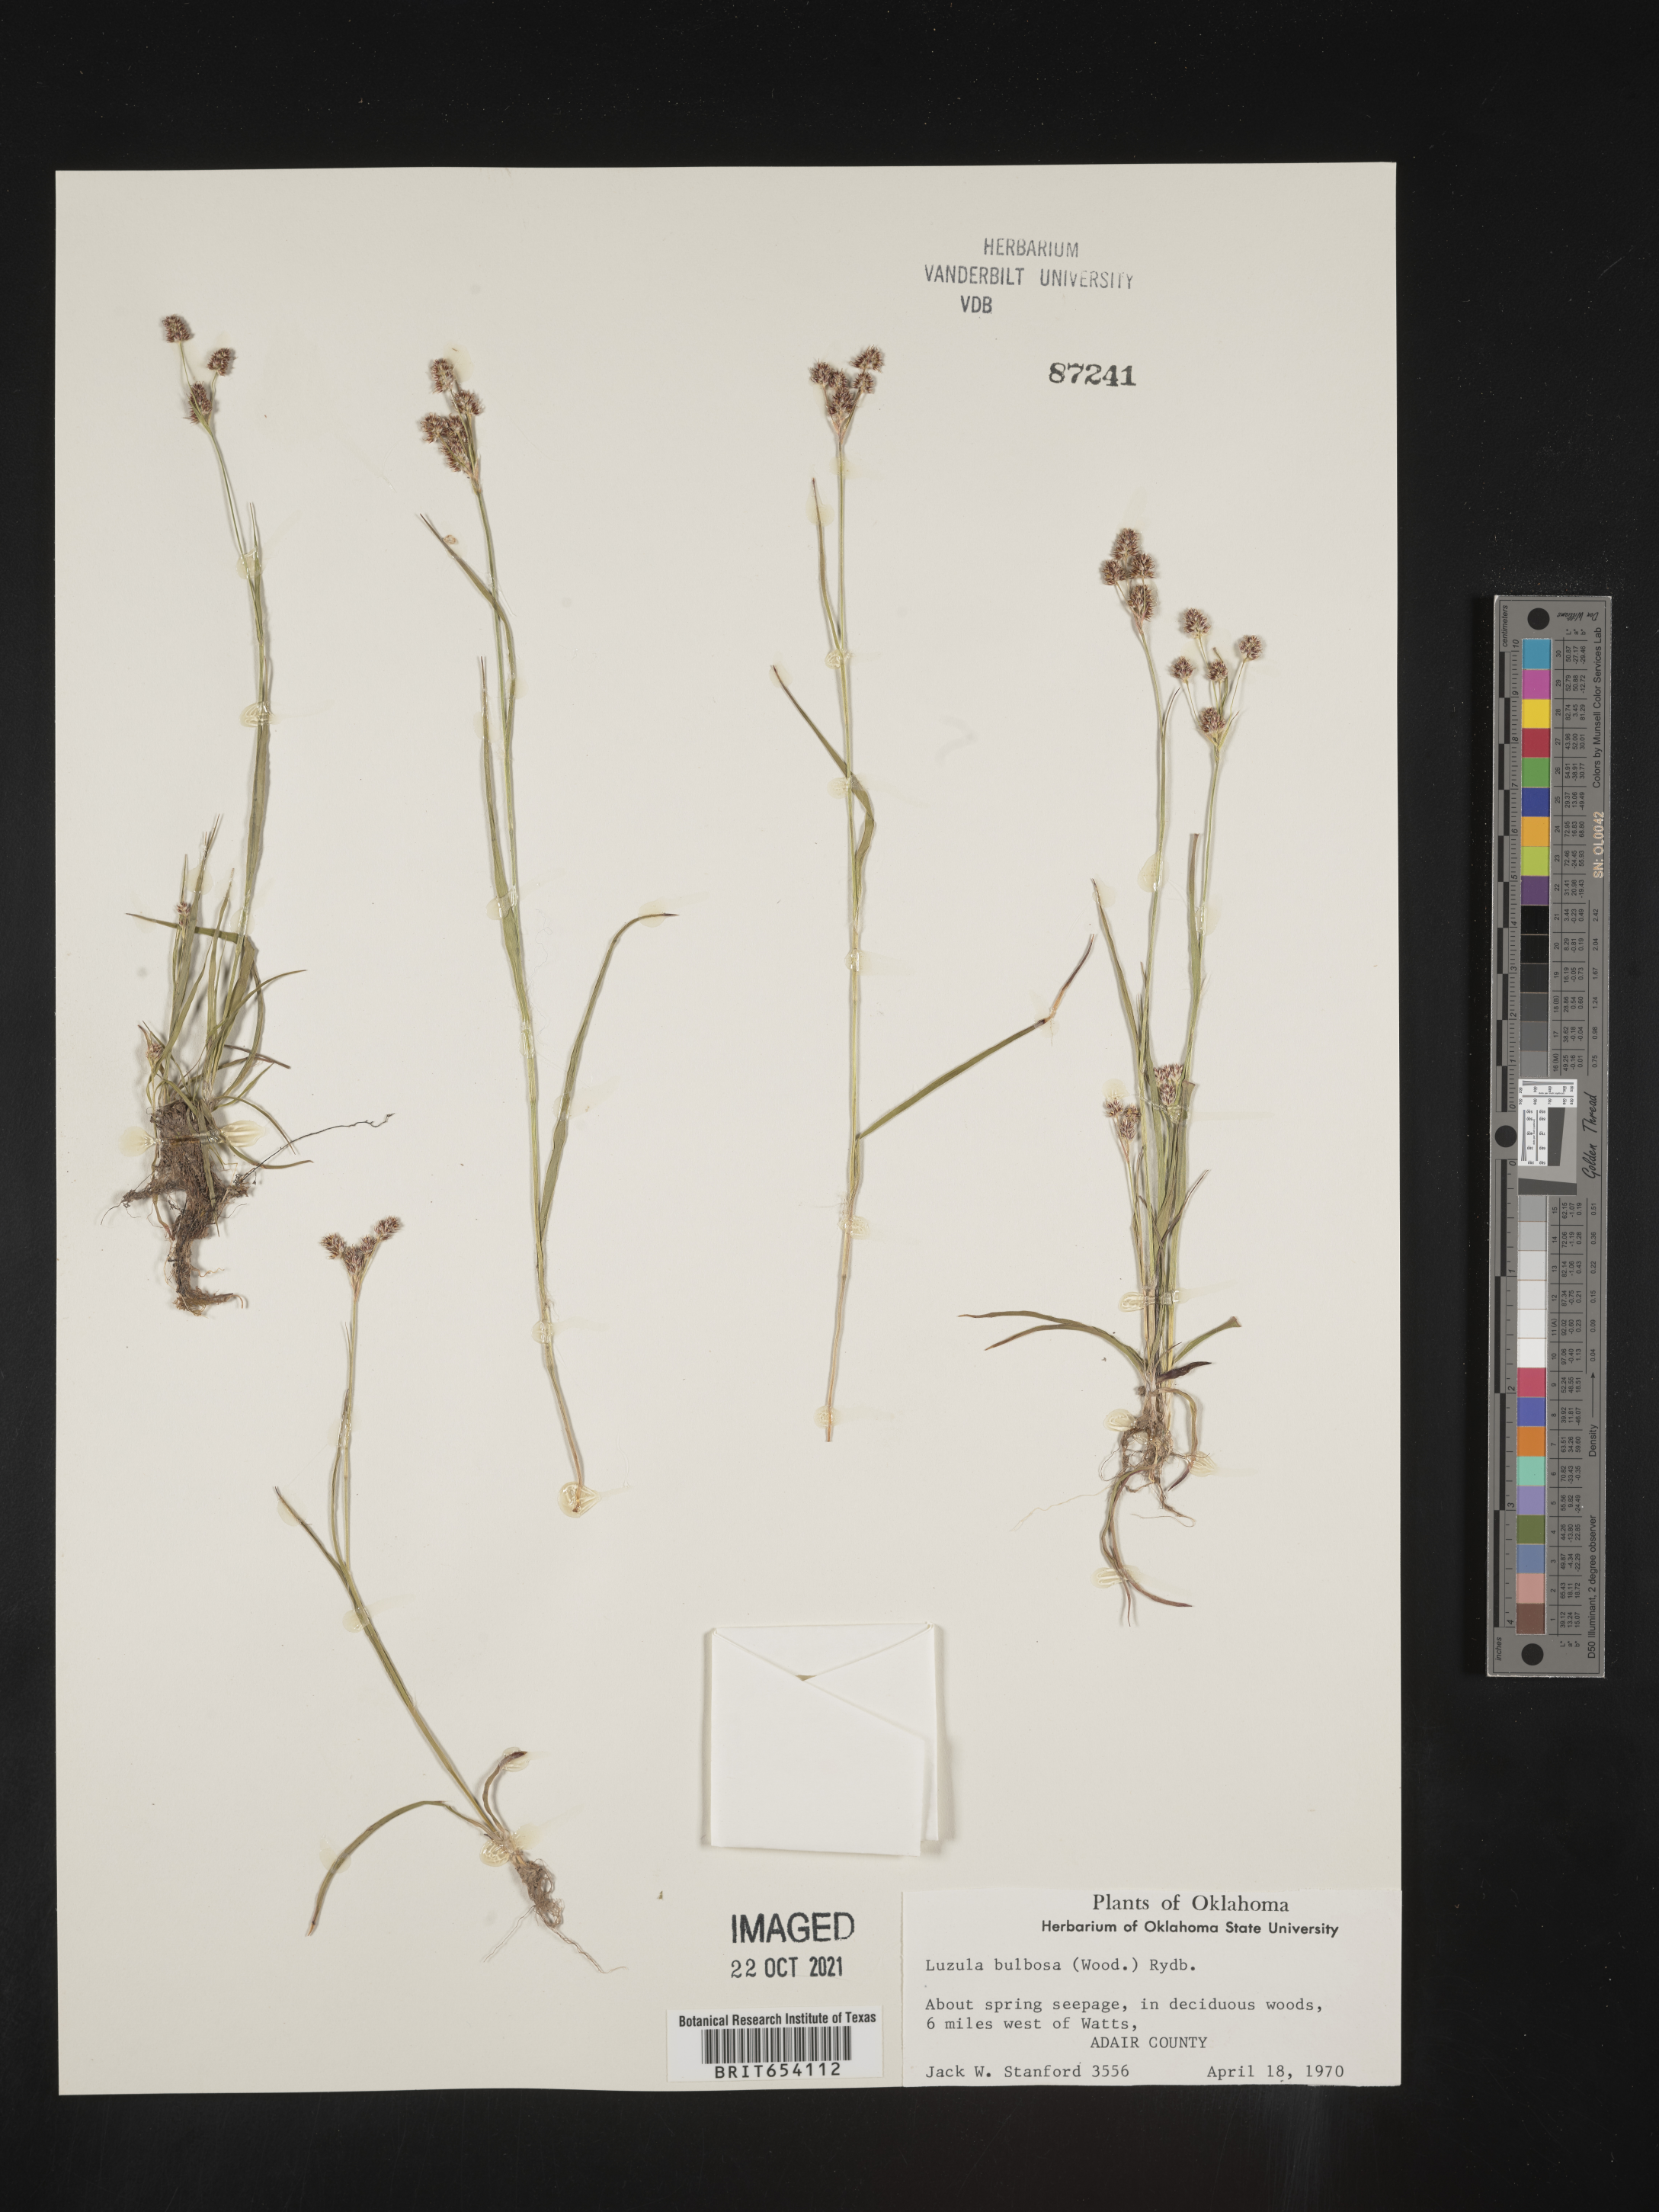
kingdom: Plantae
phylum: Tracheophyta
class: Liliopsida
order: Poales
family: Juncaceae
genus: Luzula
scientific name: Luzula bulbosa
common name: Bulbous woodrush
